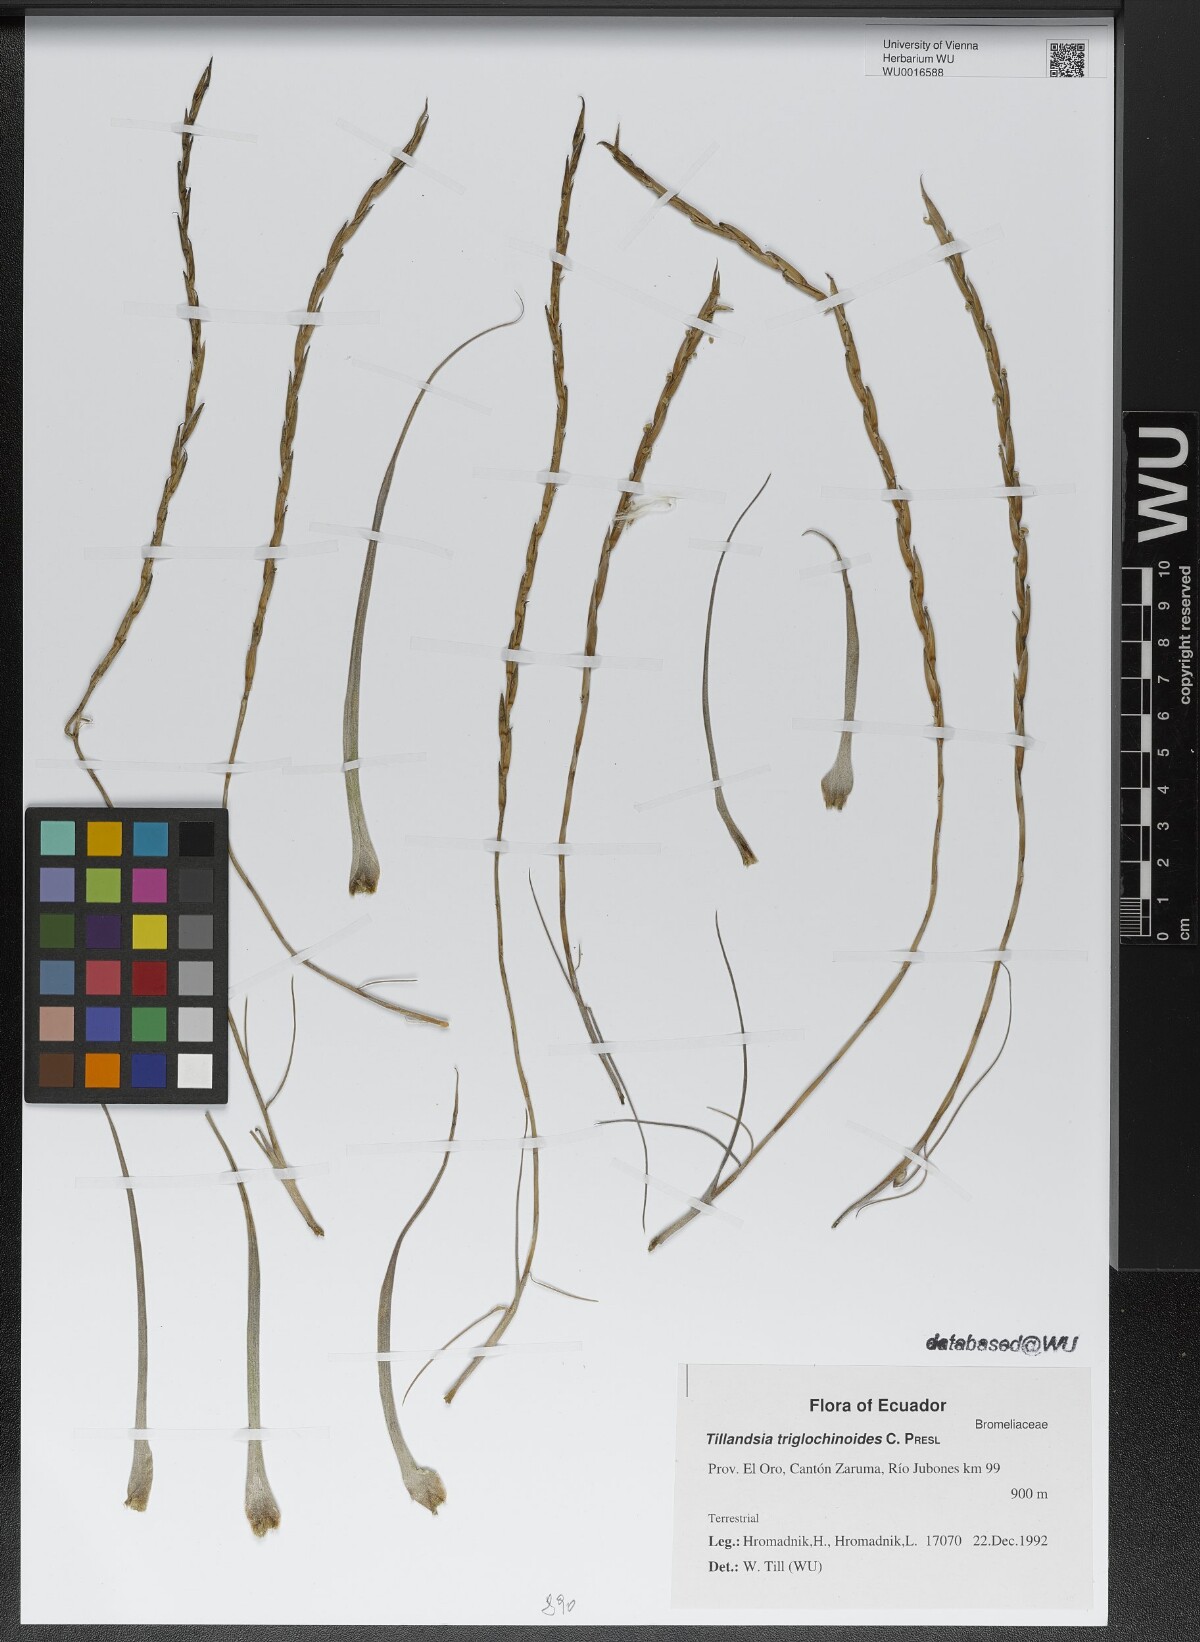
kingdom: Plantae
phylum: Tracheophyta
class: Liliopsida
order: Poales
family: Bromeliaceae
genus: Lemeltonia
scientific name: Lemeltonia triglochinoides
